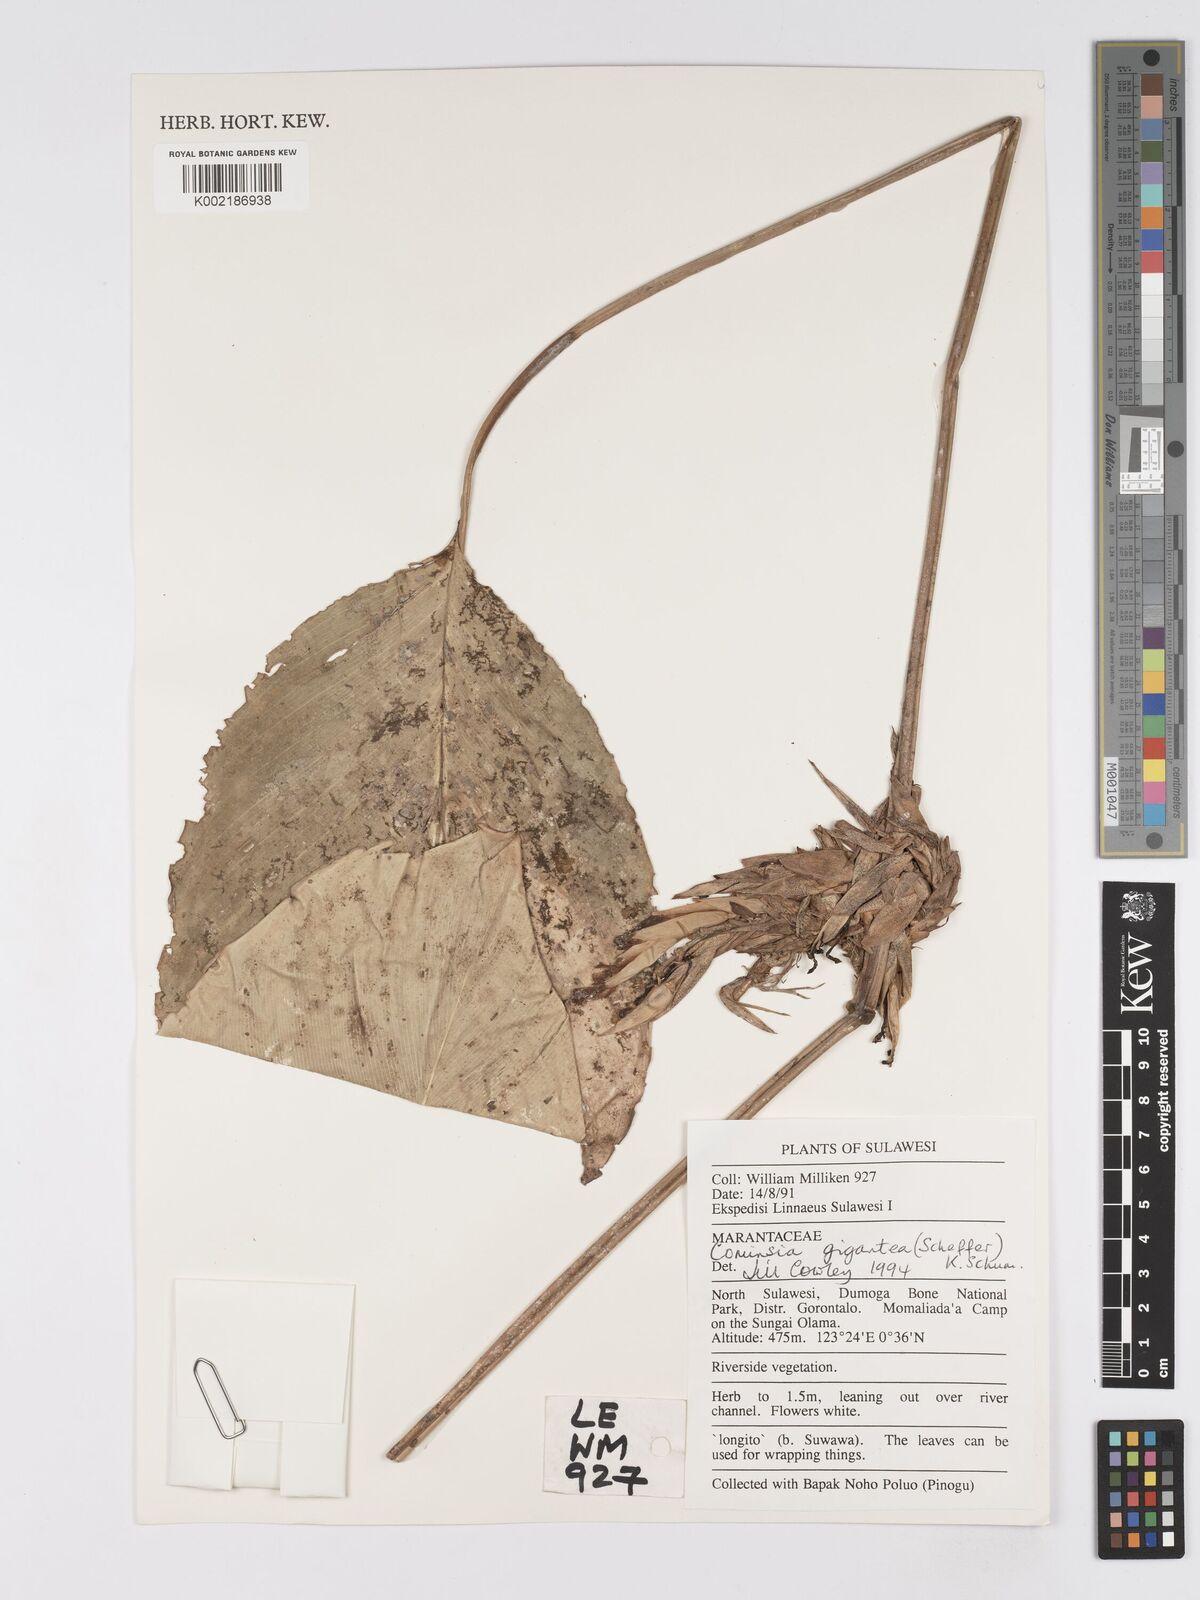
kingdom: Plantae
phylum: Tracheophyta
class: Liliopsida
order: Zingiberales
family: Marantaceae
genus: Phrynium
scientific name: Phrynium giganteum
